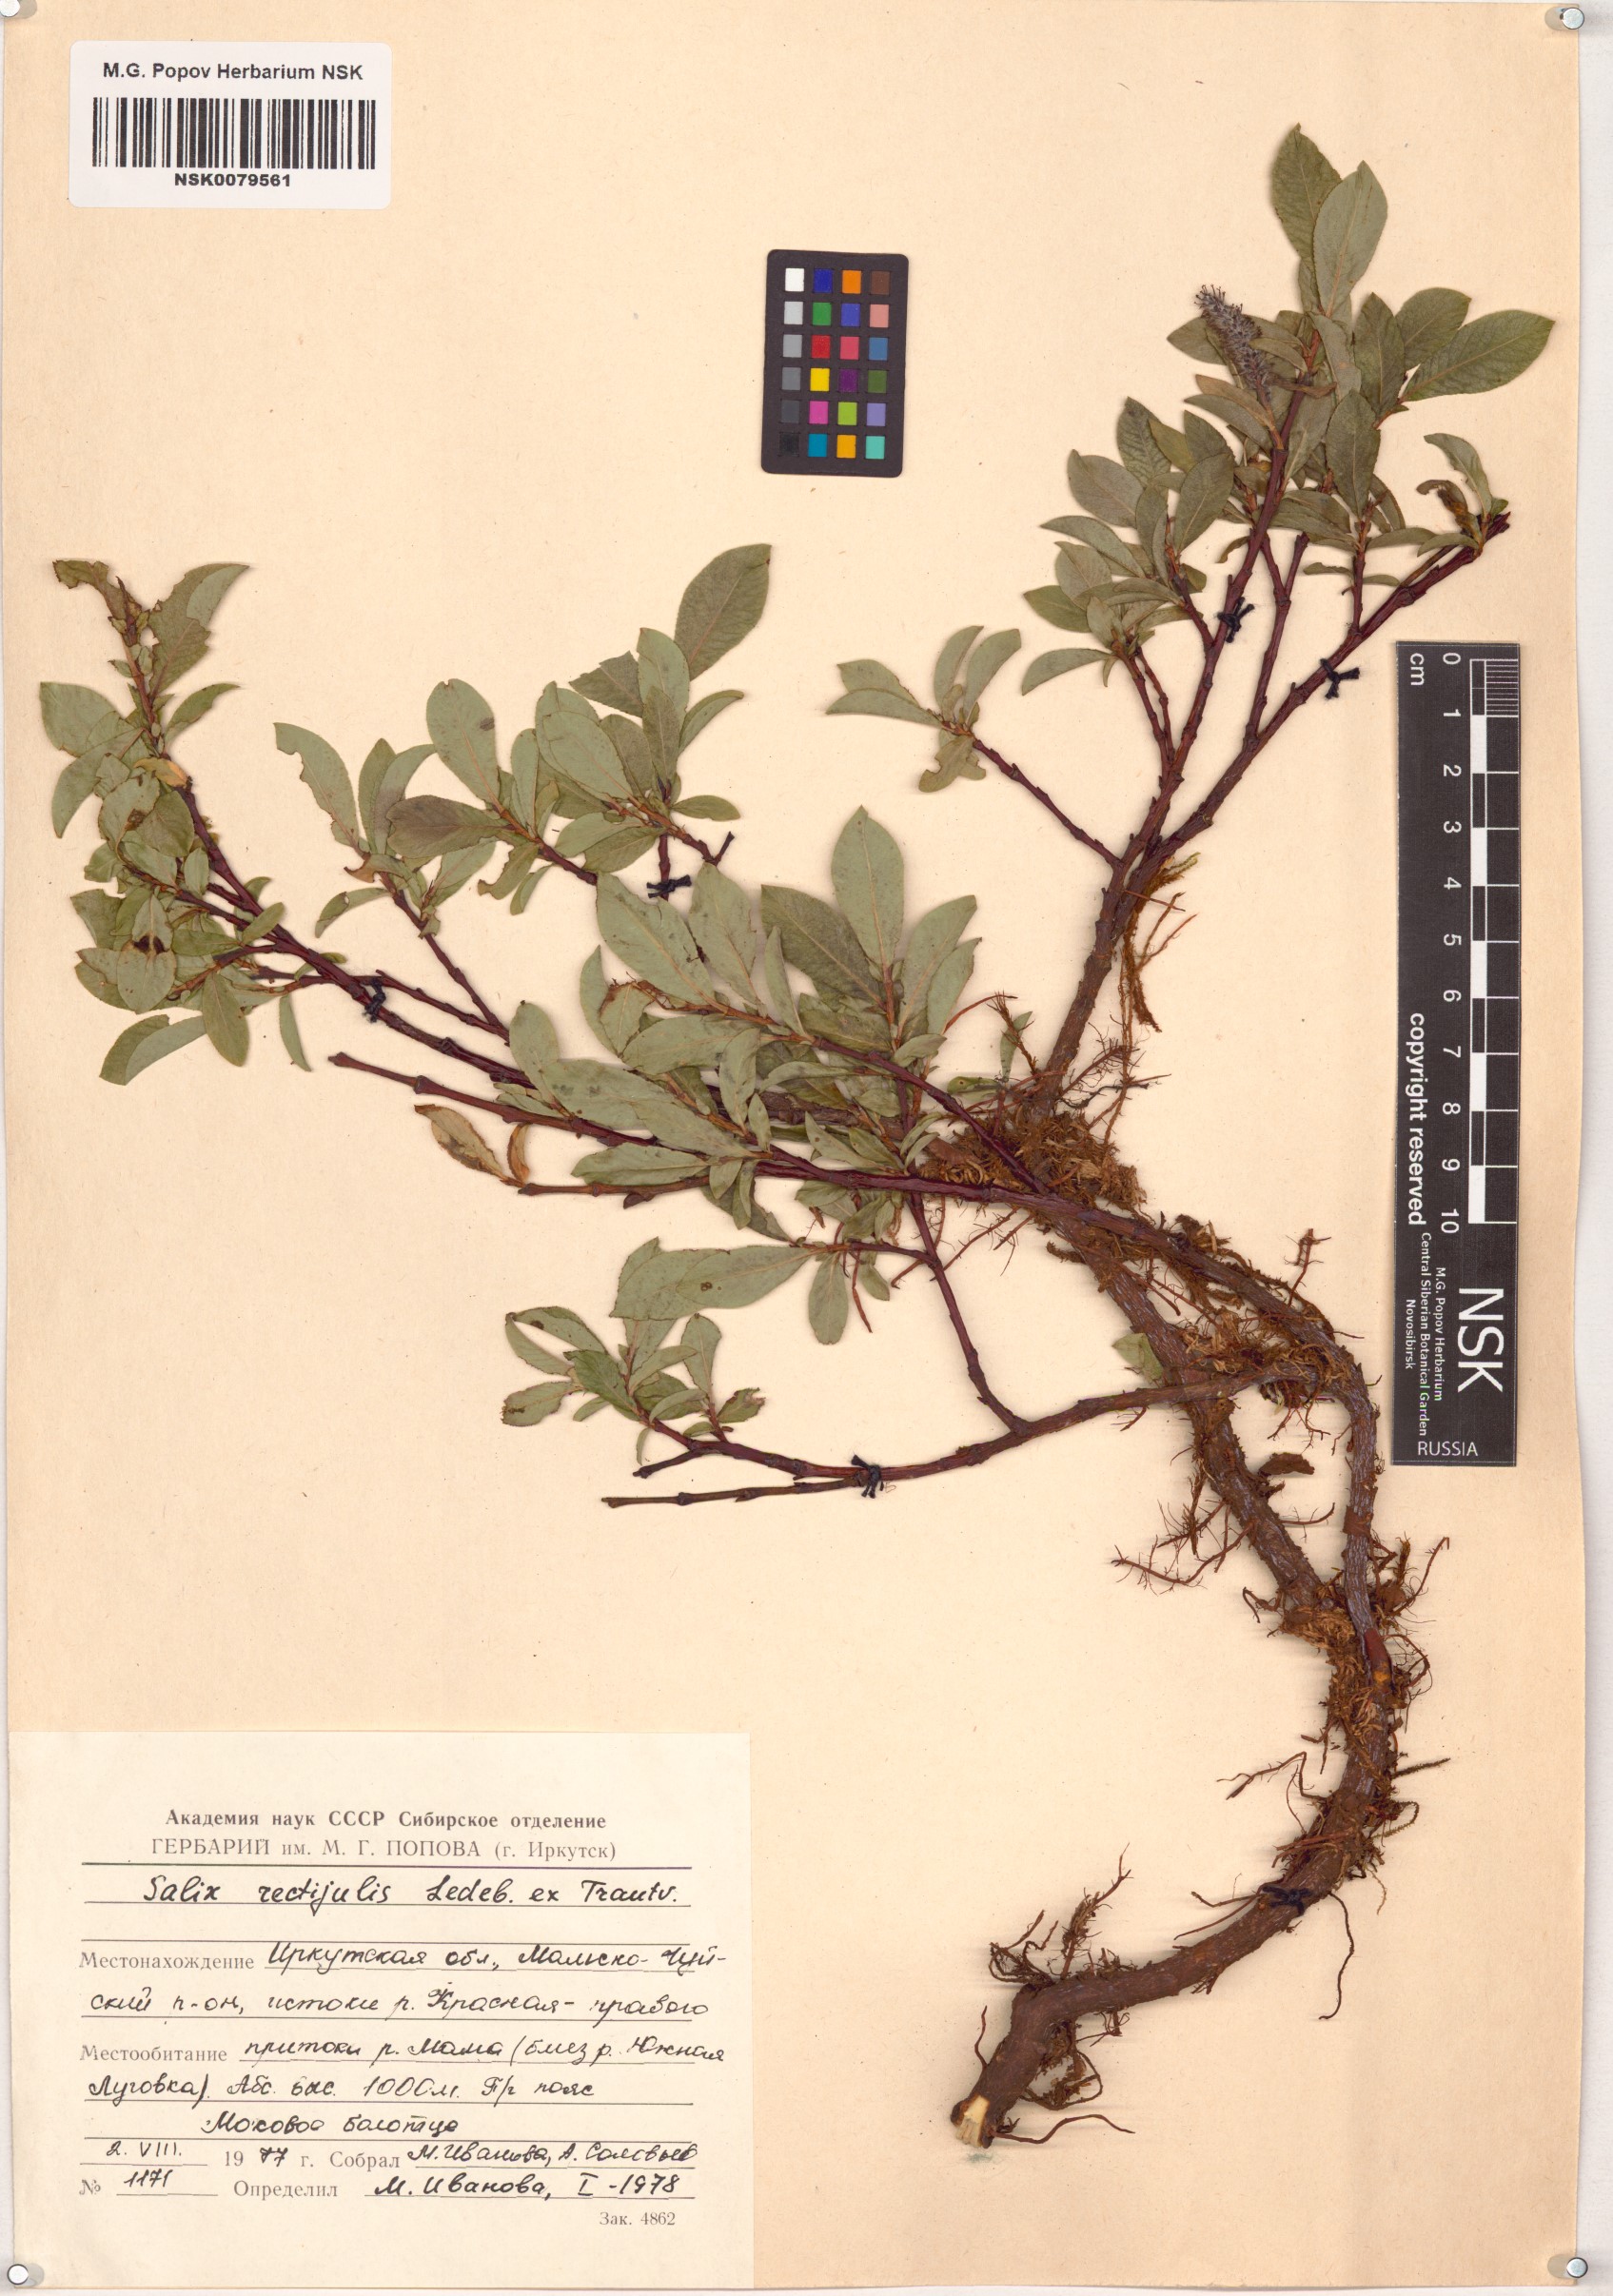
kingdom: Plantae
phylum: Tracheophyta
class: Magnoliopsida
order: Malpighiales
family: Salicaceae
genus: Salix
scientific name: Salix rectijulis
